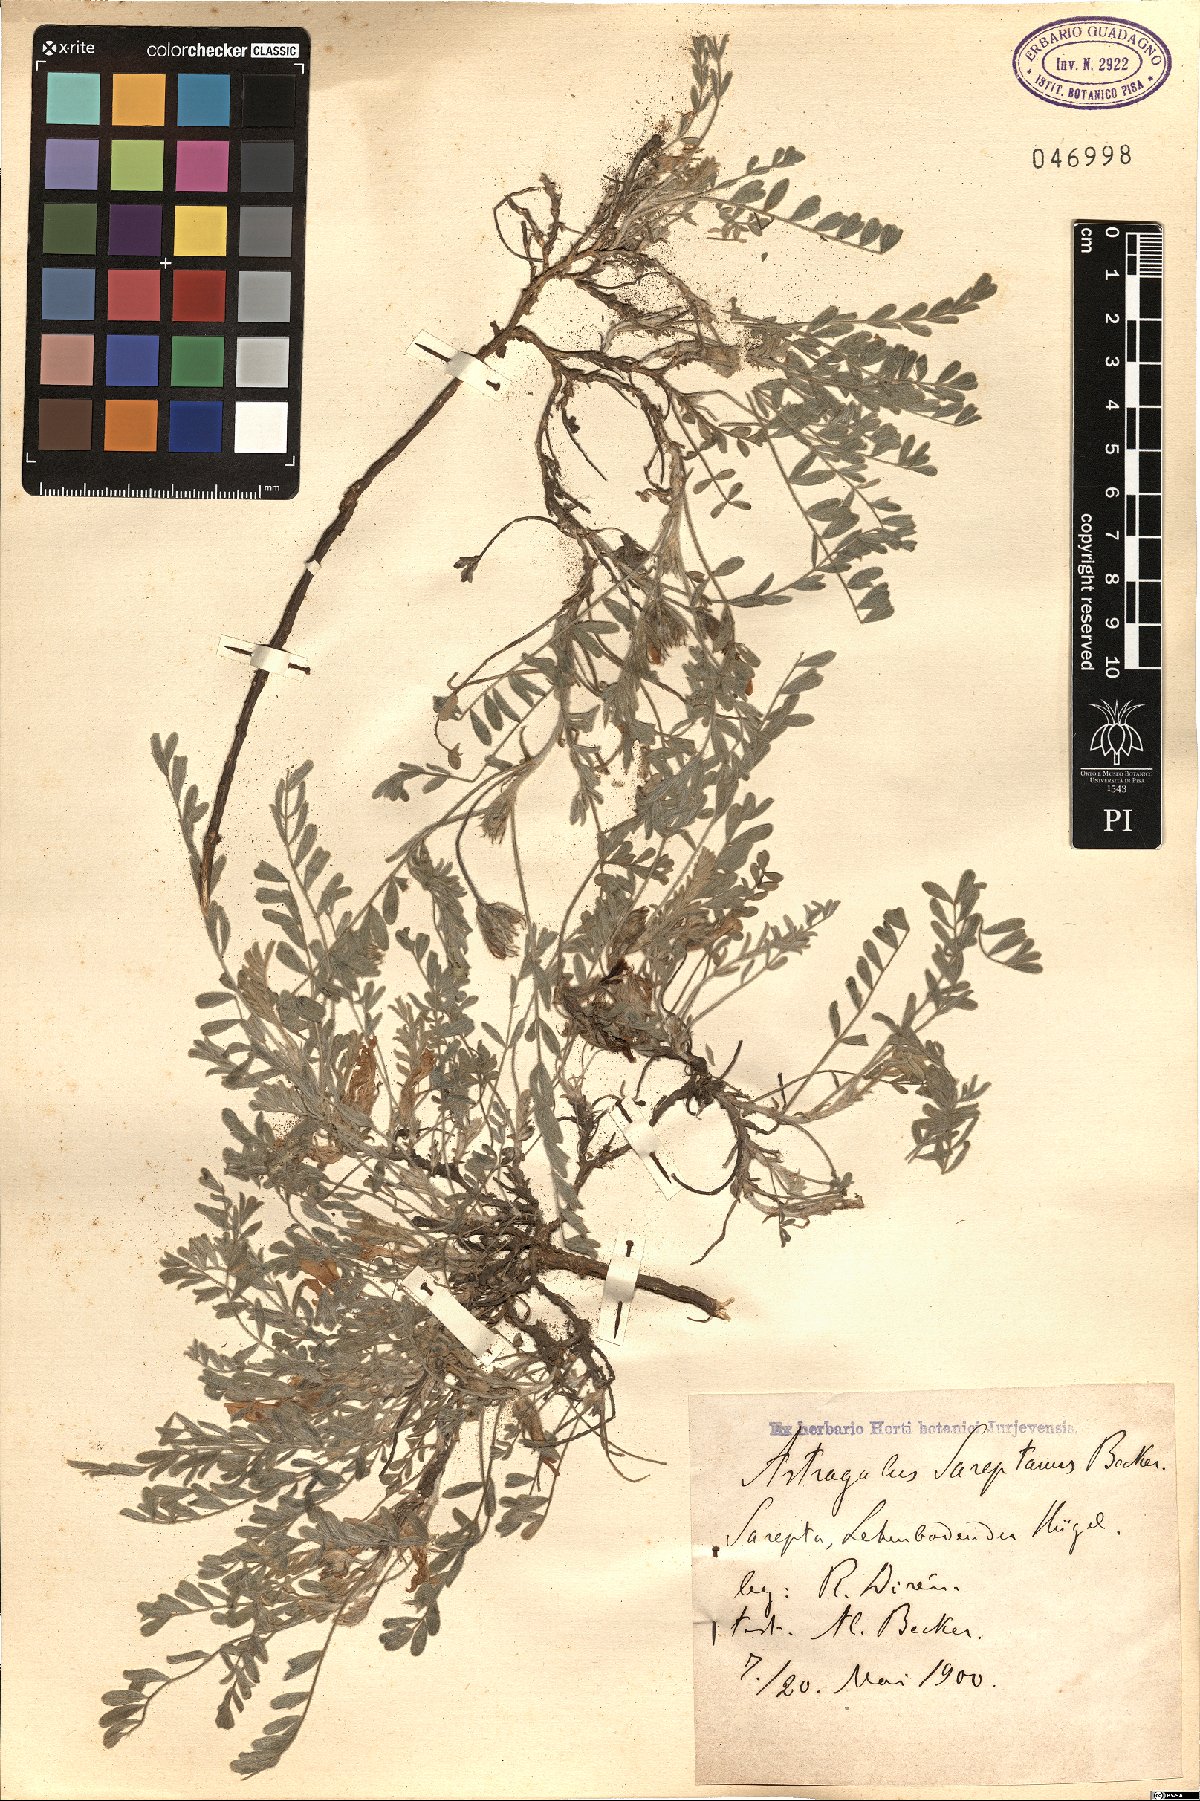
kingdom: Plantae
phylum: Tracheophyta
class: Magnoliopsida
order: Fabales
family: Fabaceae
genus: Astragalus
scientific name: Astragalus rupifragus
